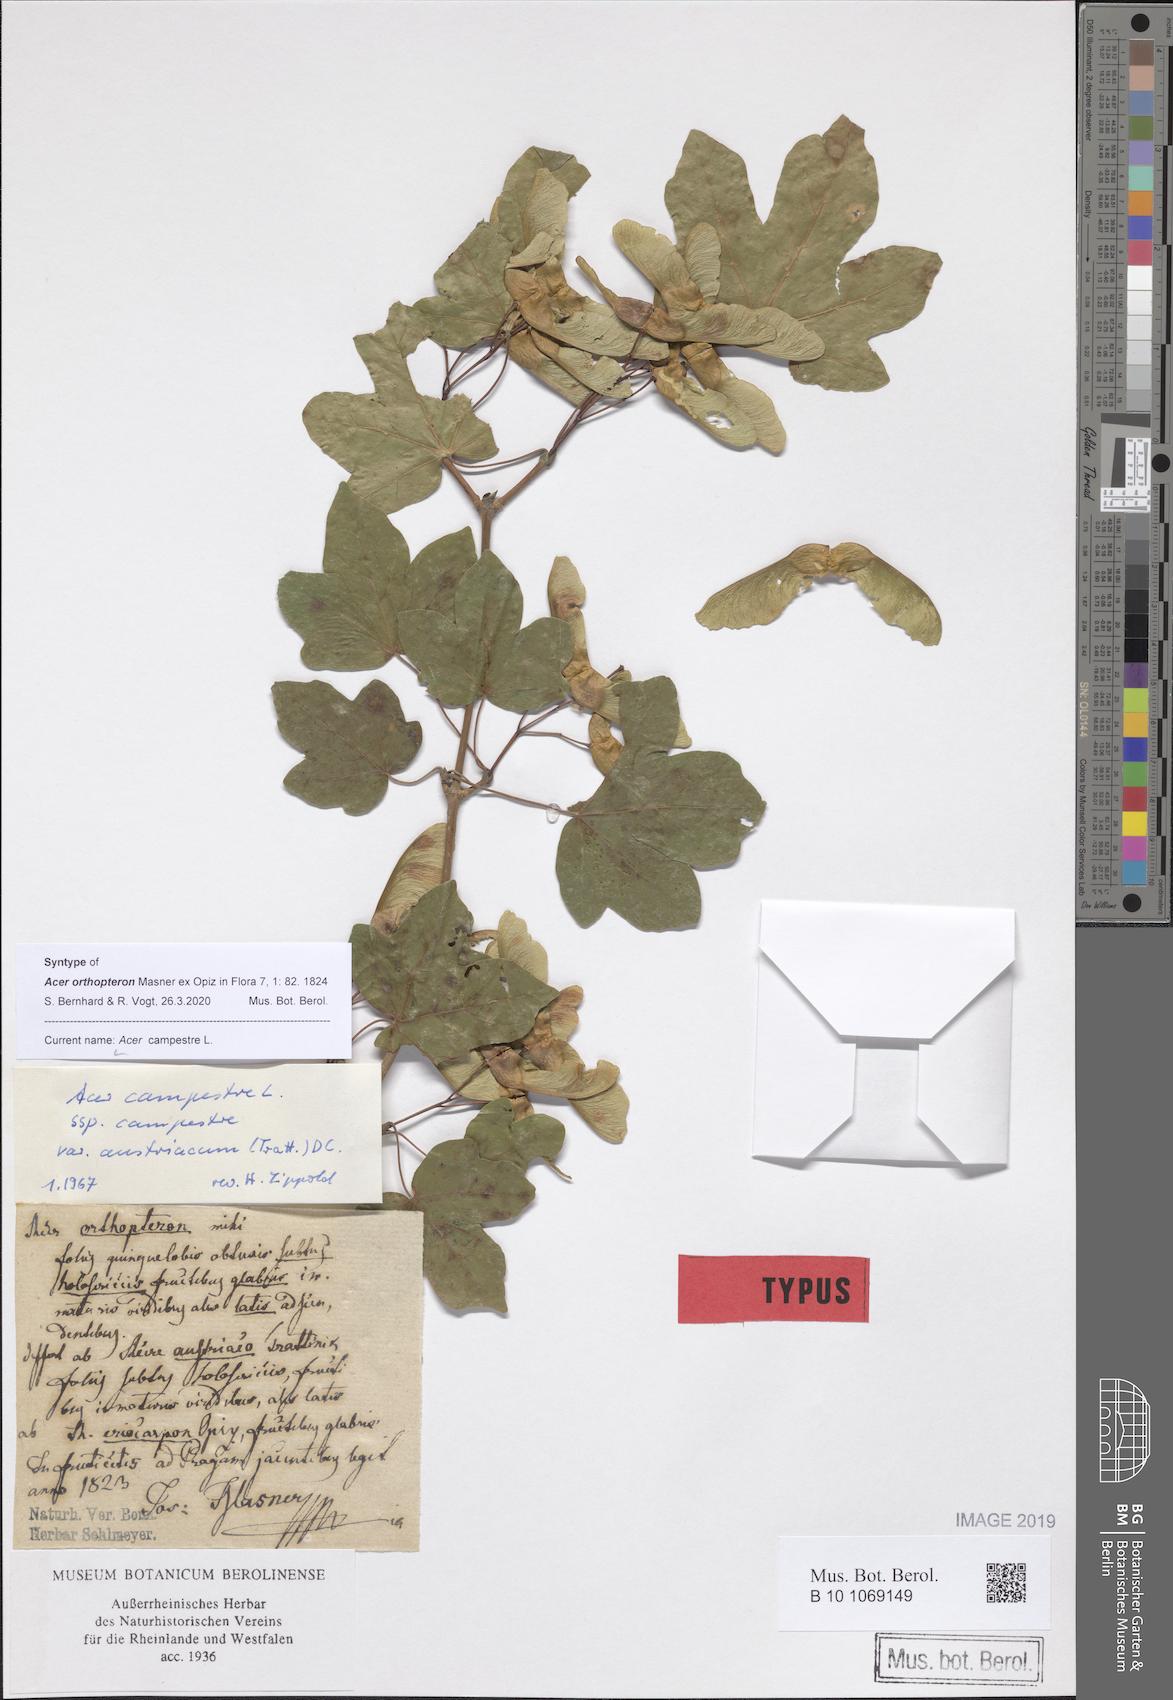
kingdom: Plantae
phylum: Tracheophyta
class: Magnoliopsida
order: Sapindales
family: Sapindaceae
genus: Acer
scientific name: Acer campestre
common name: Field maple
